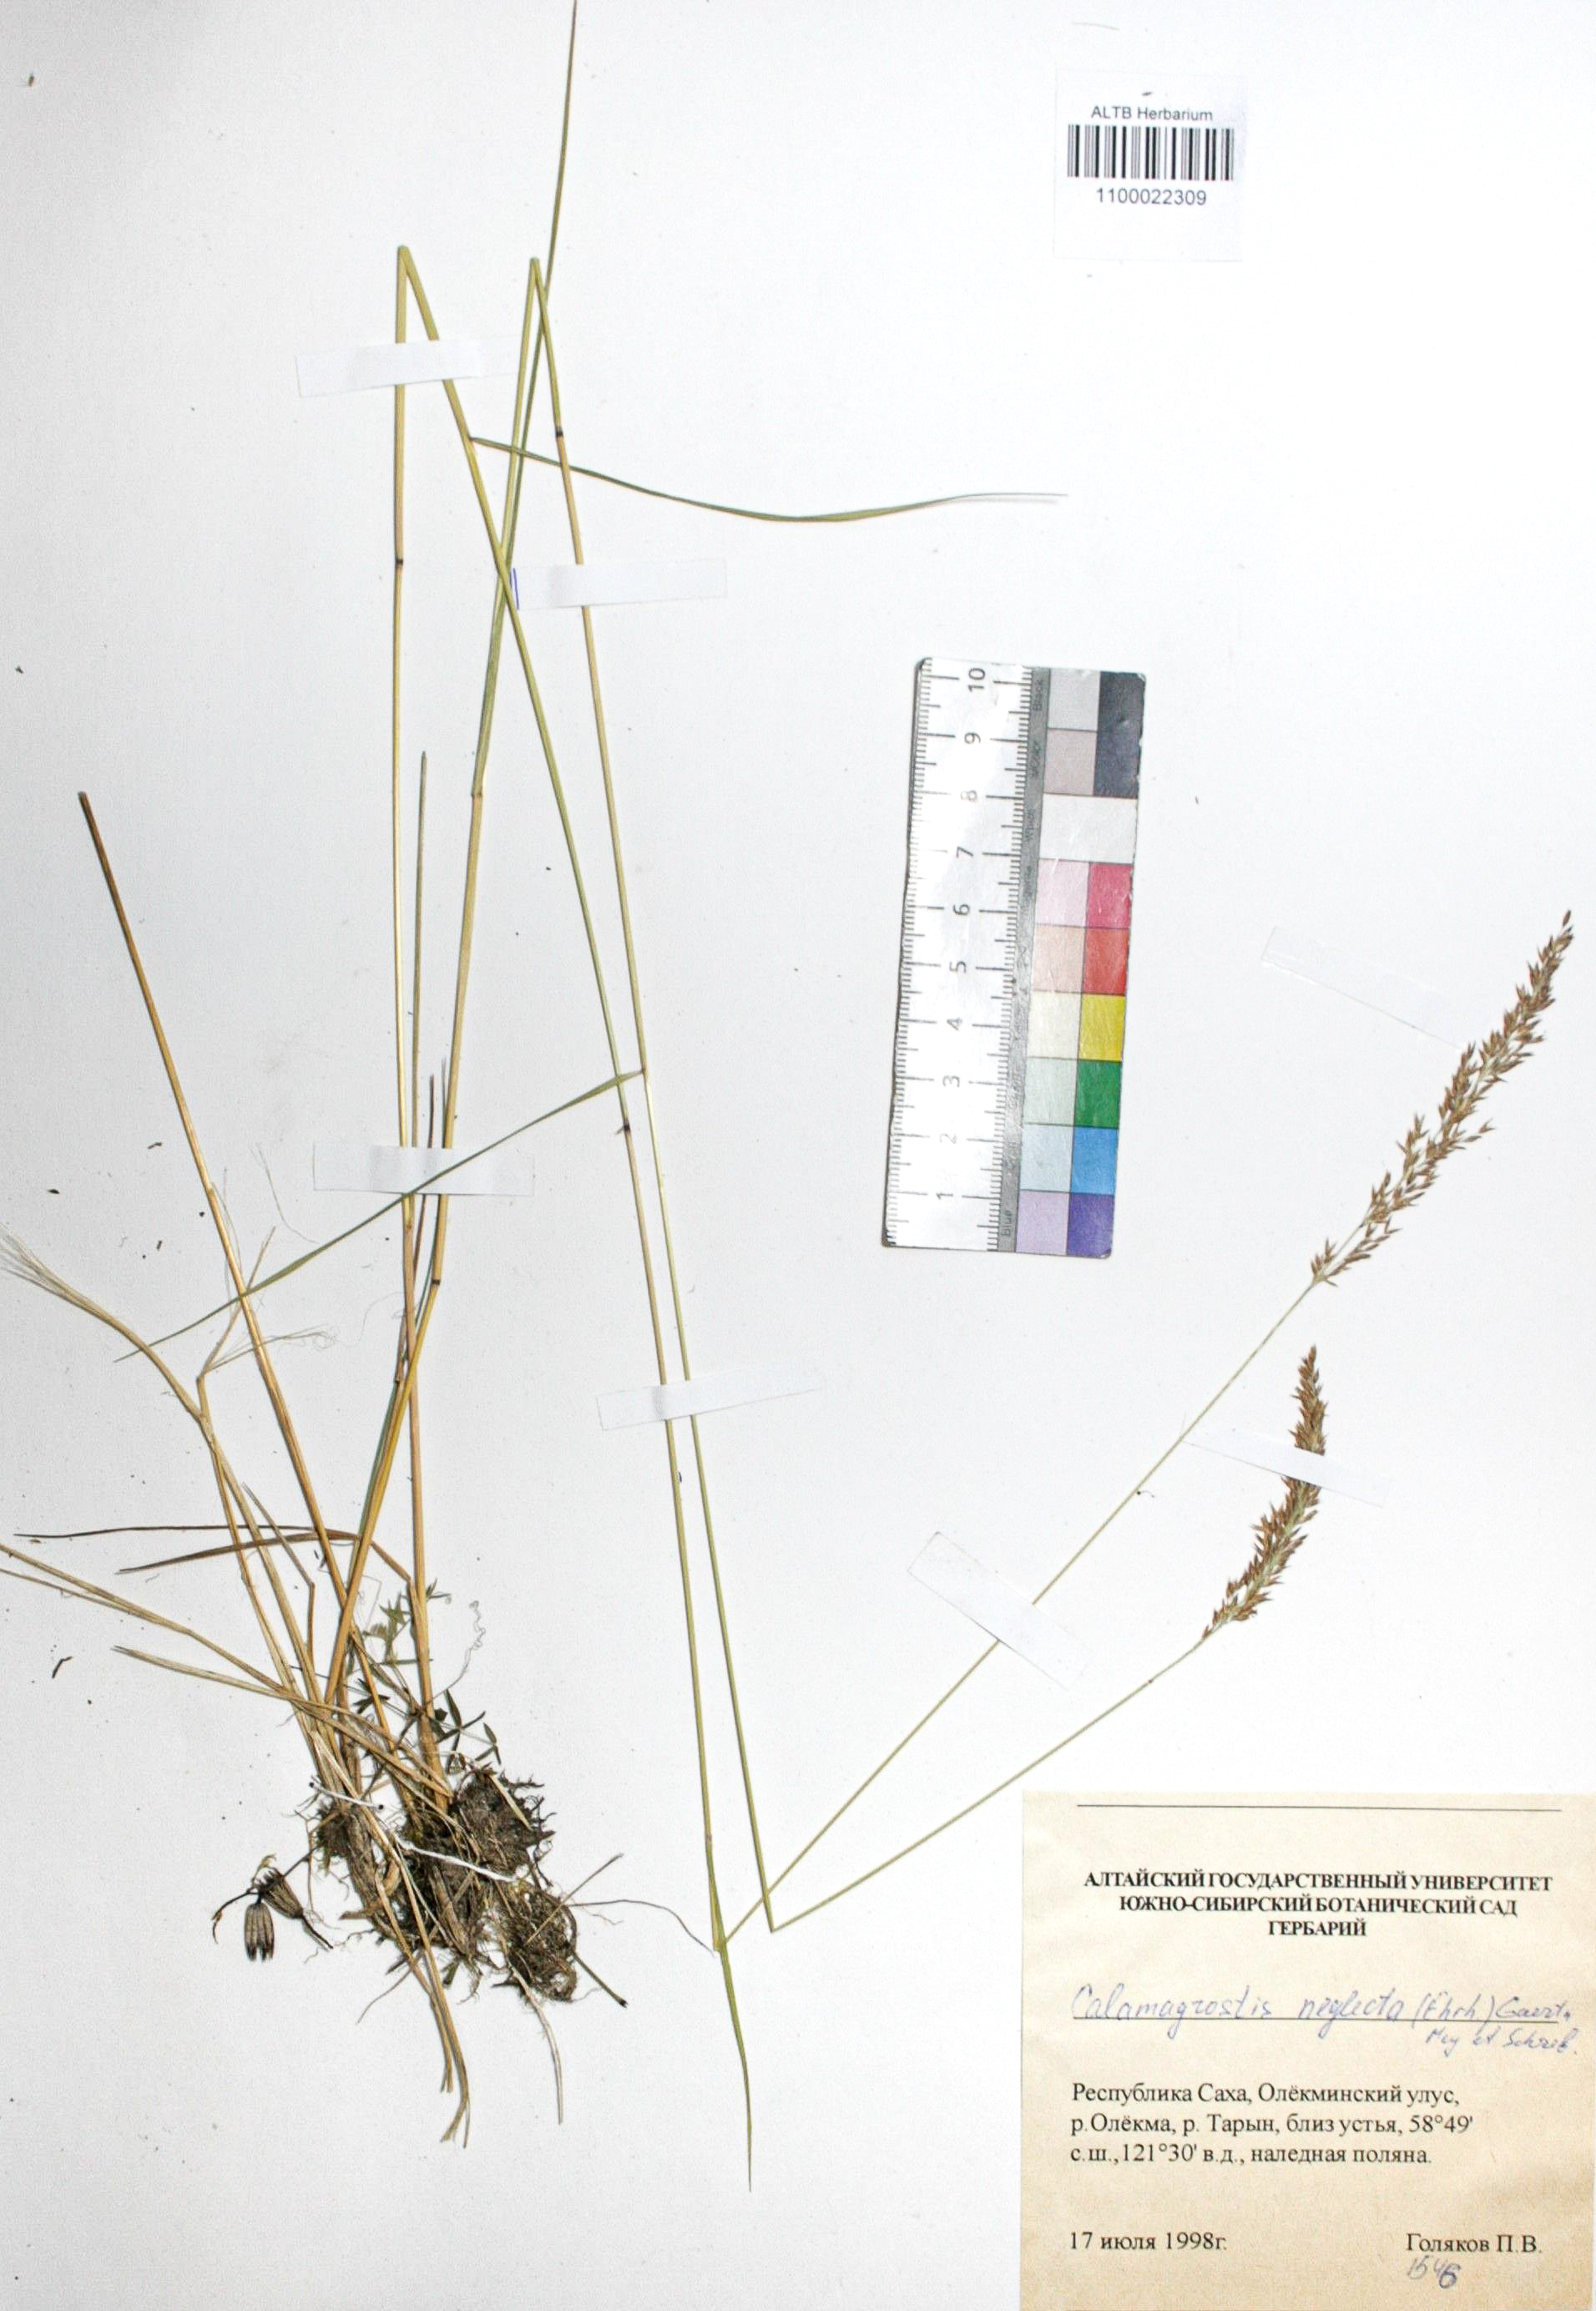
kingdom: Plantae
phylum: Tracheophyta
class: Liliopsida
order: Poales
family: Poaceae
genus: Achnatherum
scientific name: Achnatherum calamagrostis
